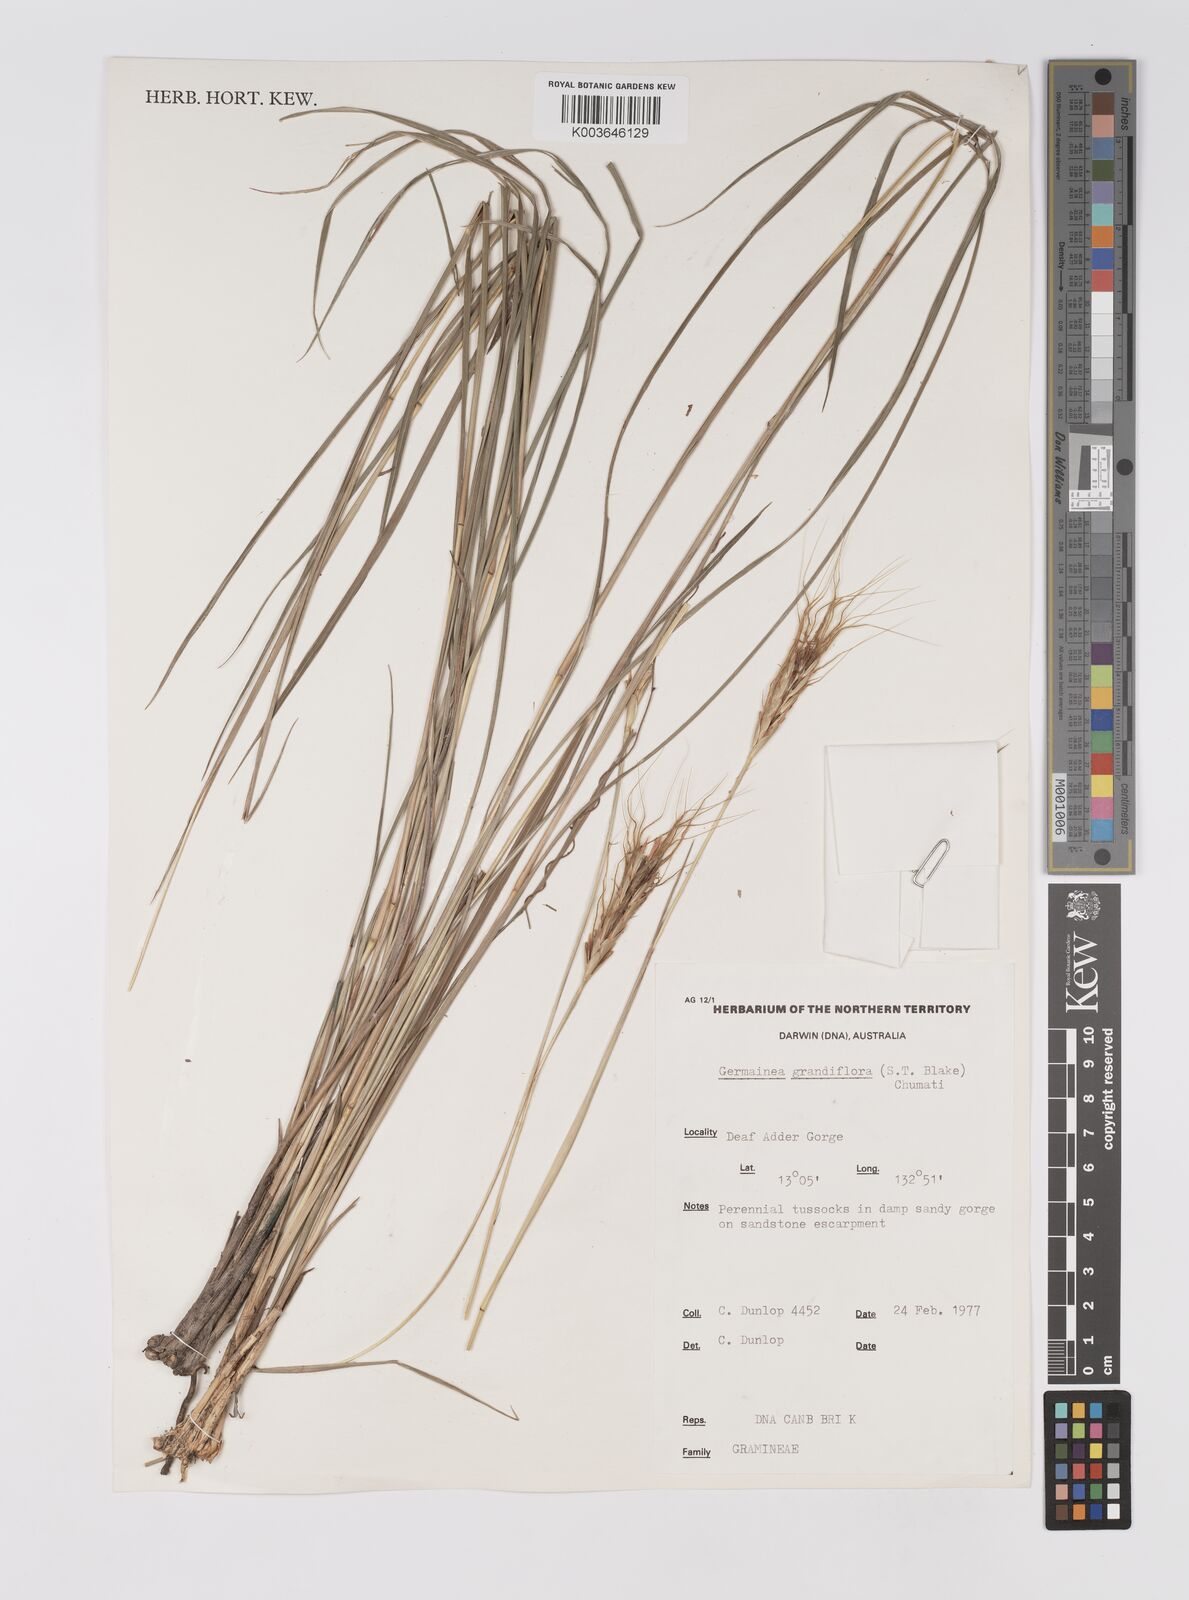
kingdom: Plantae
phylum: Tracheophyta
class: Liliopsida
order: Poales
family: Poaceae
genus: Germainia
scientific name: Germainia grandiflora
